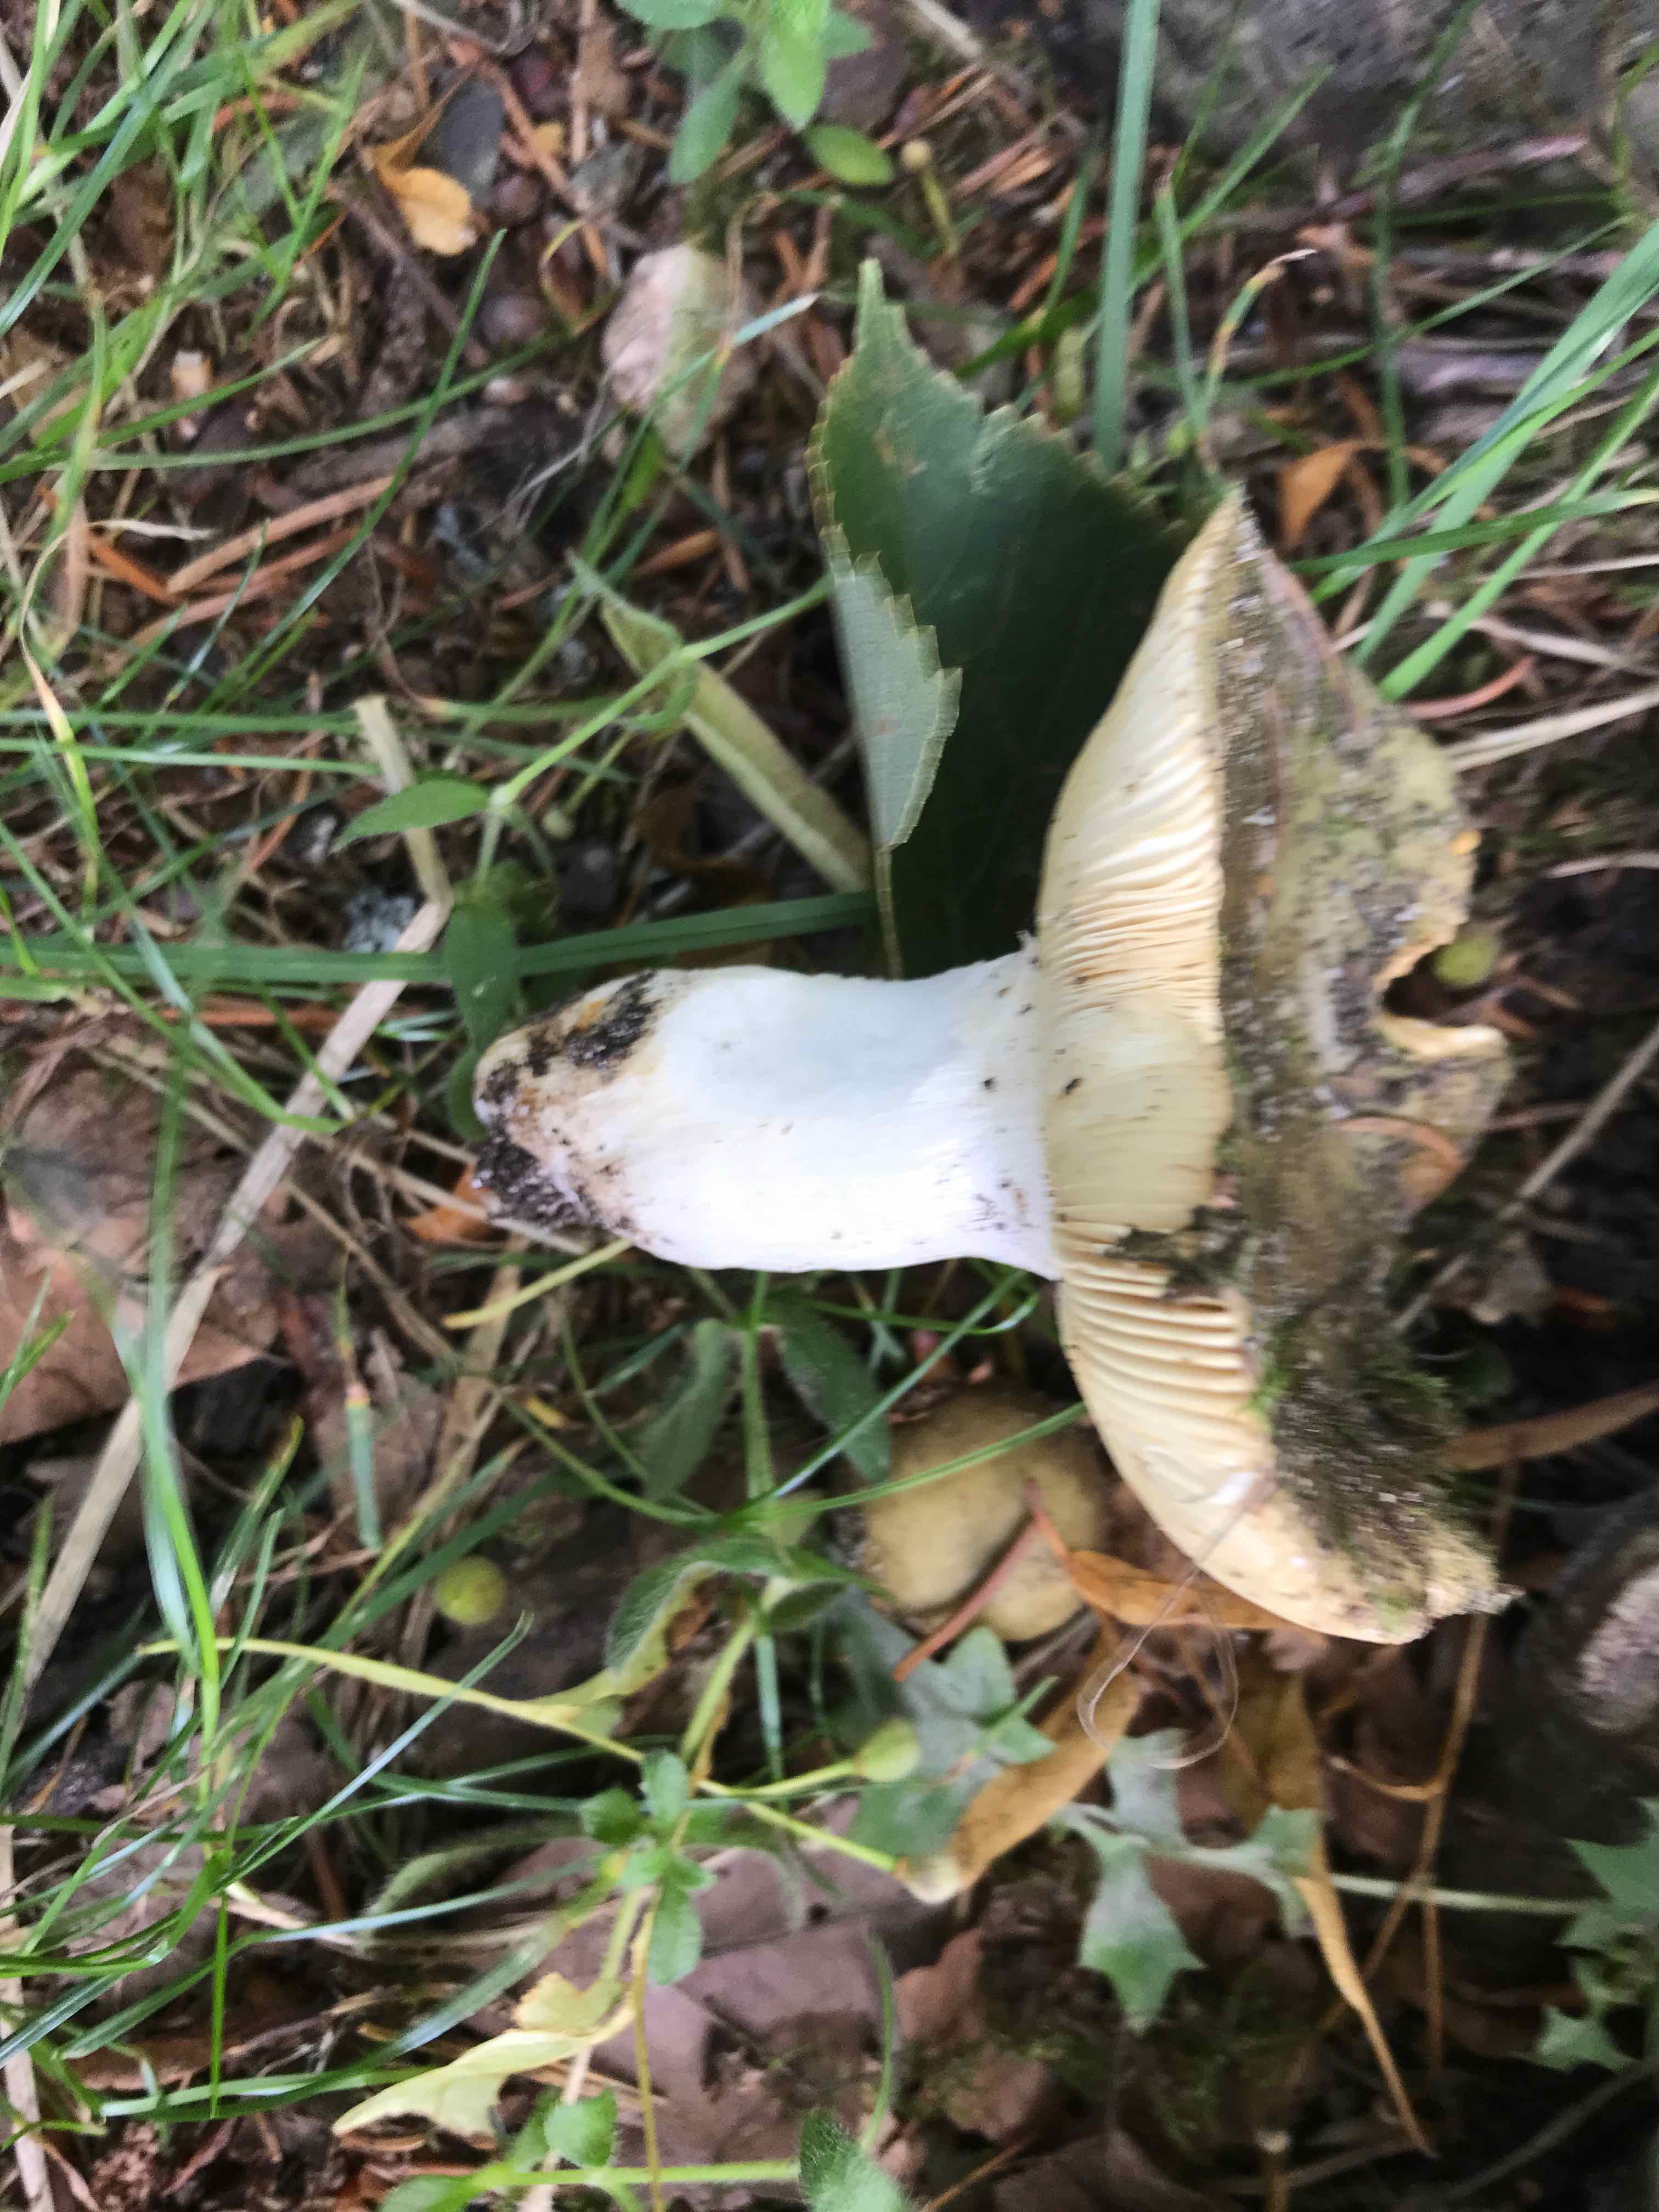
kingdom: Fungi
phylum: Basidiomycota
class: Agaricomycetes
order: Russulales
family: Russulaceae
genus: Russula
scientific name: Russula
